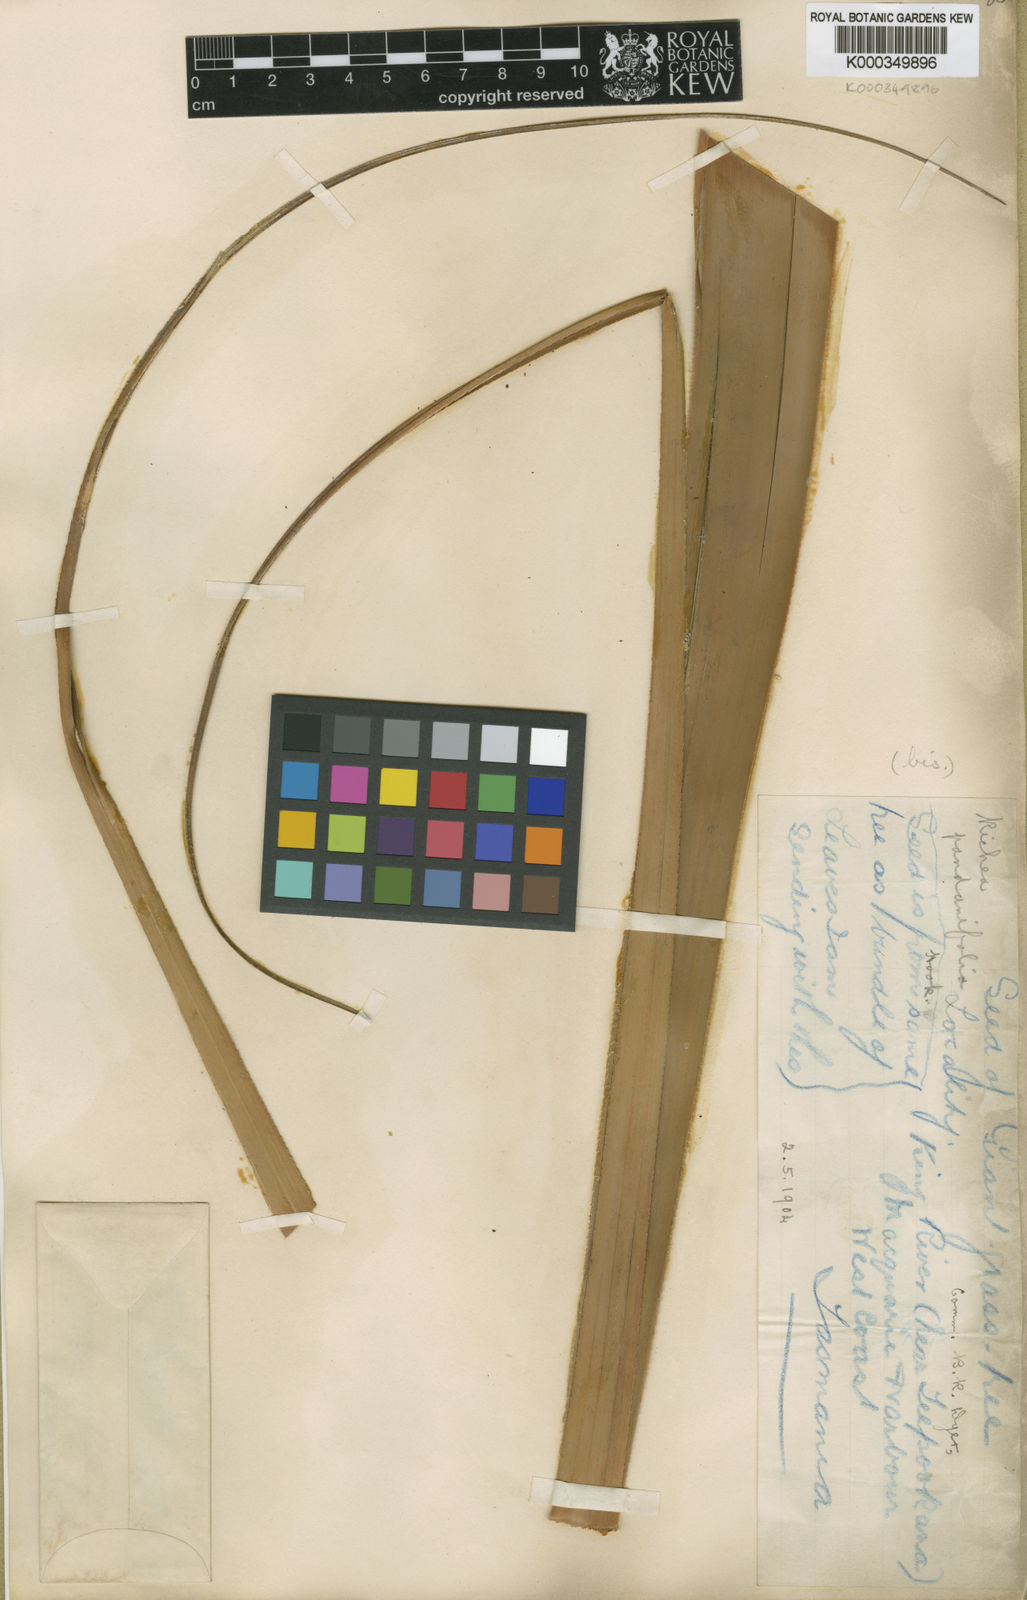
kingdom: Plantae
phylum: Tracheophyta
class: Magnoliopsida
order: Ericales
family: Ericaceae
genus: Dracophyllum
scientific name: Dracophyllum pandanifolium
